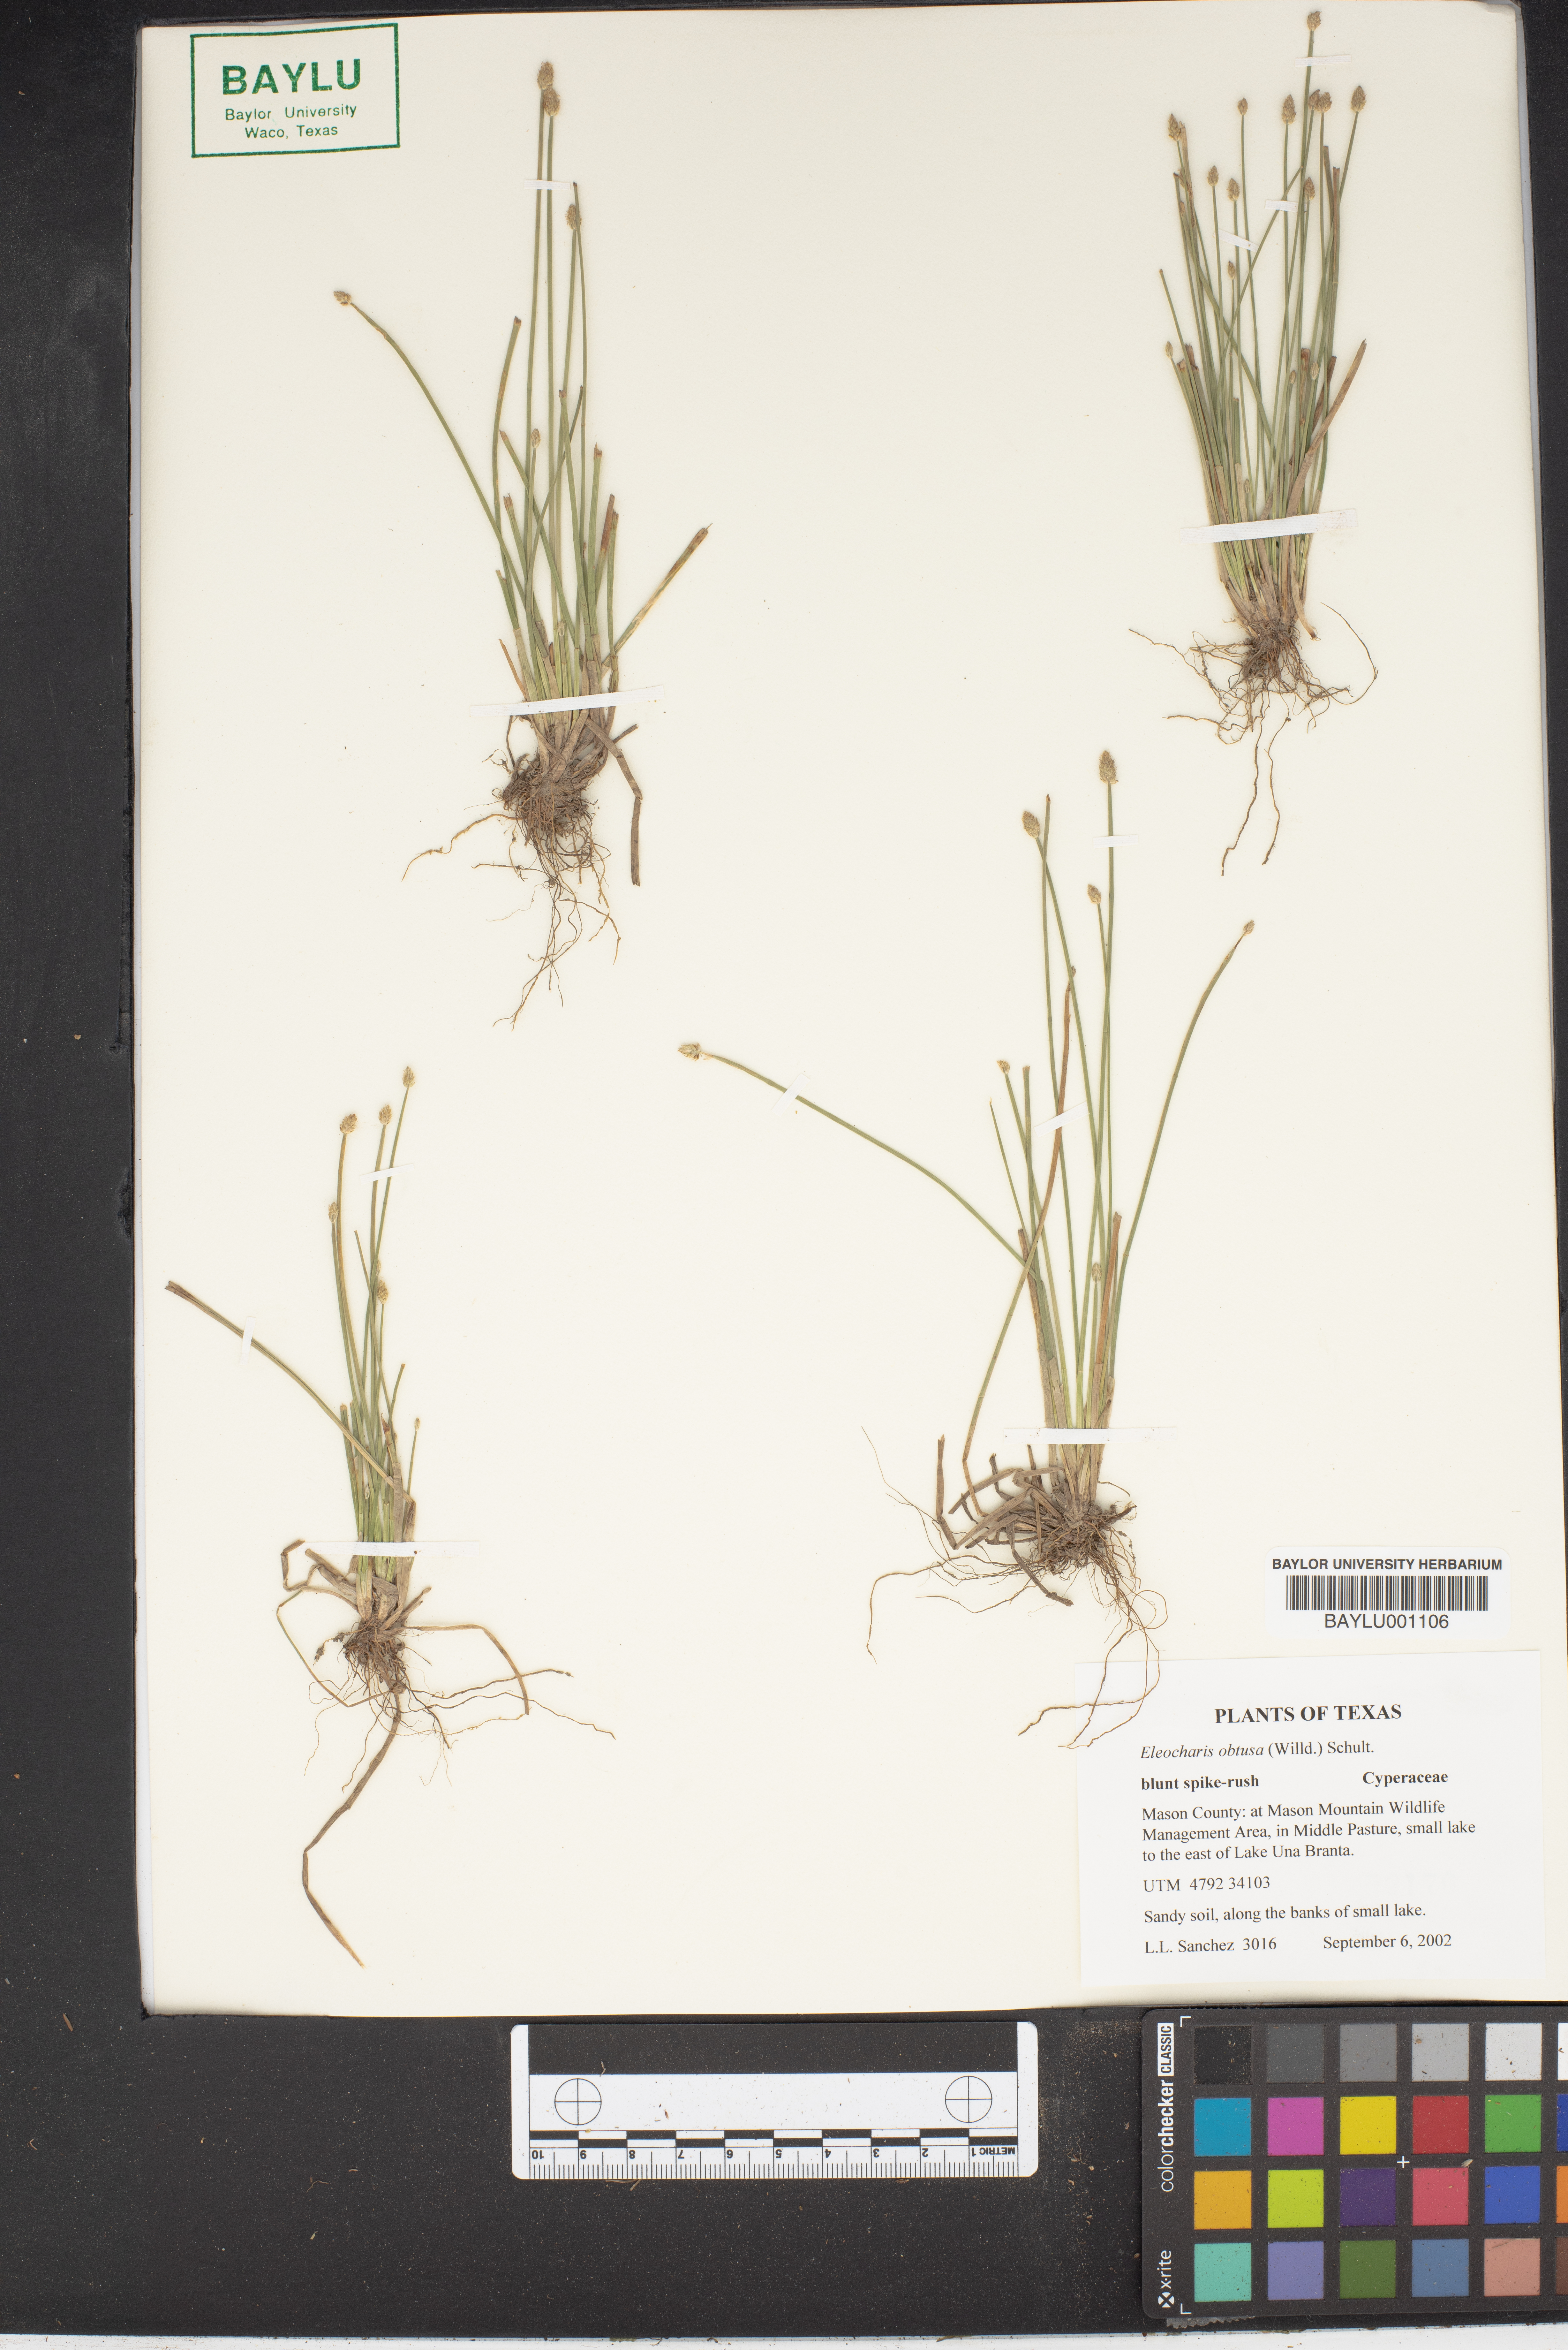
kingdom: Plantae
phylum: Tracheophyta
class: Liliopsida
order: Poales
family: Cyperaceae
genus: Eleocharis
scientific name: Eleocharis obtusa
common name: Blunt spikerush
